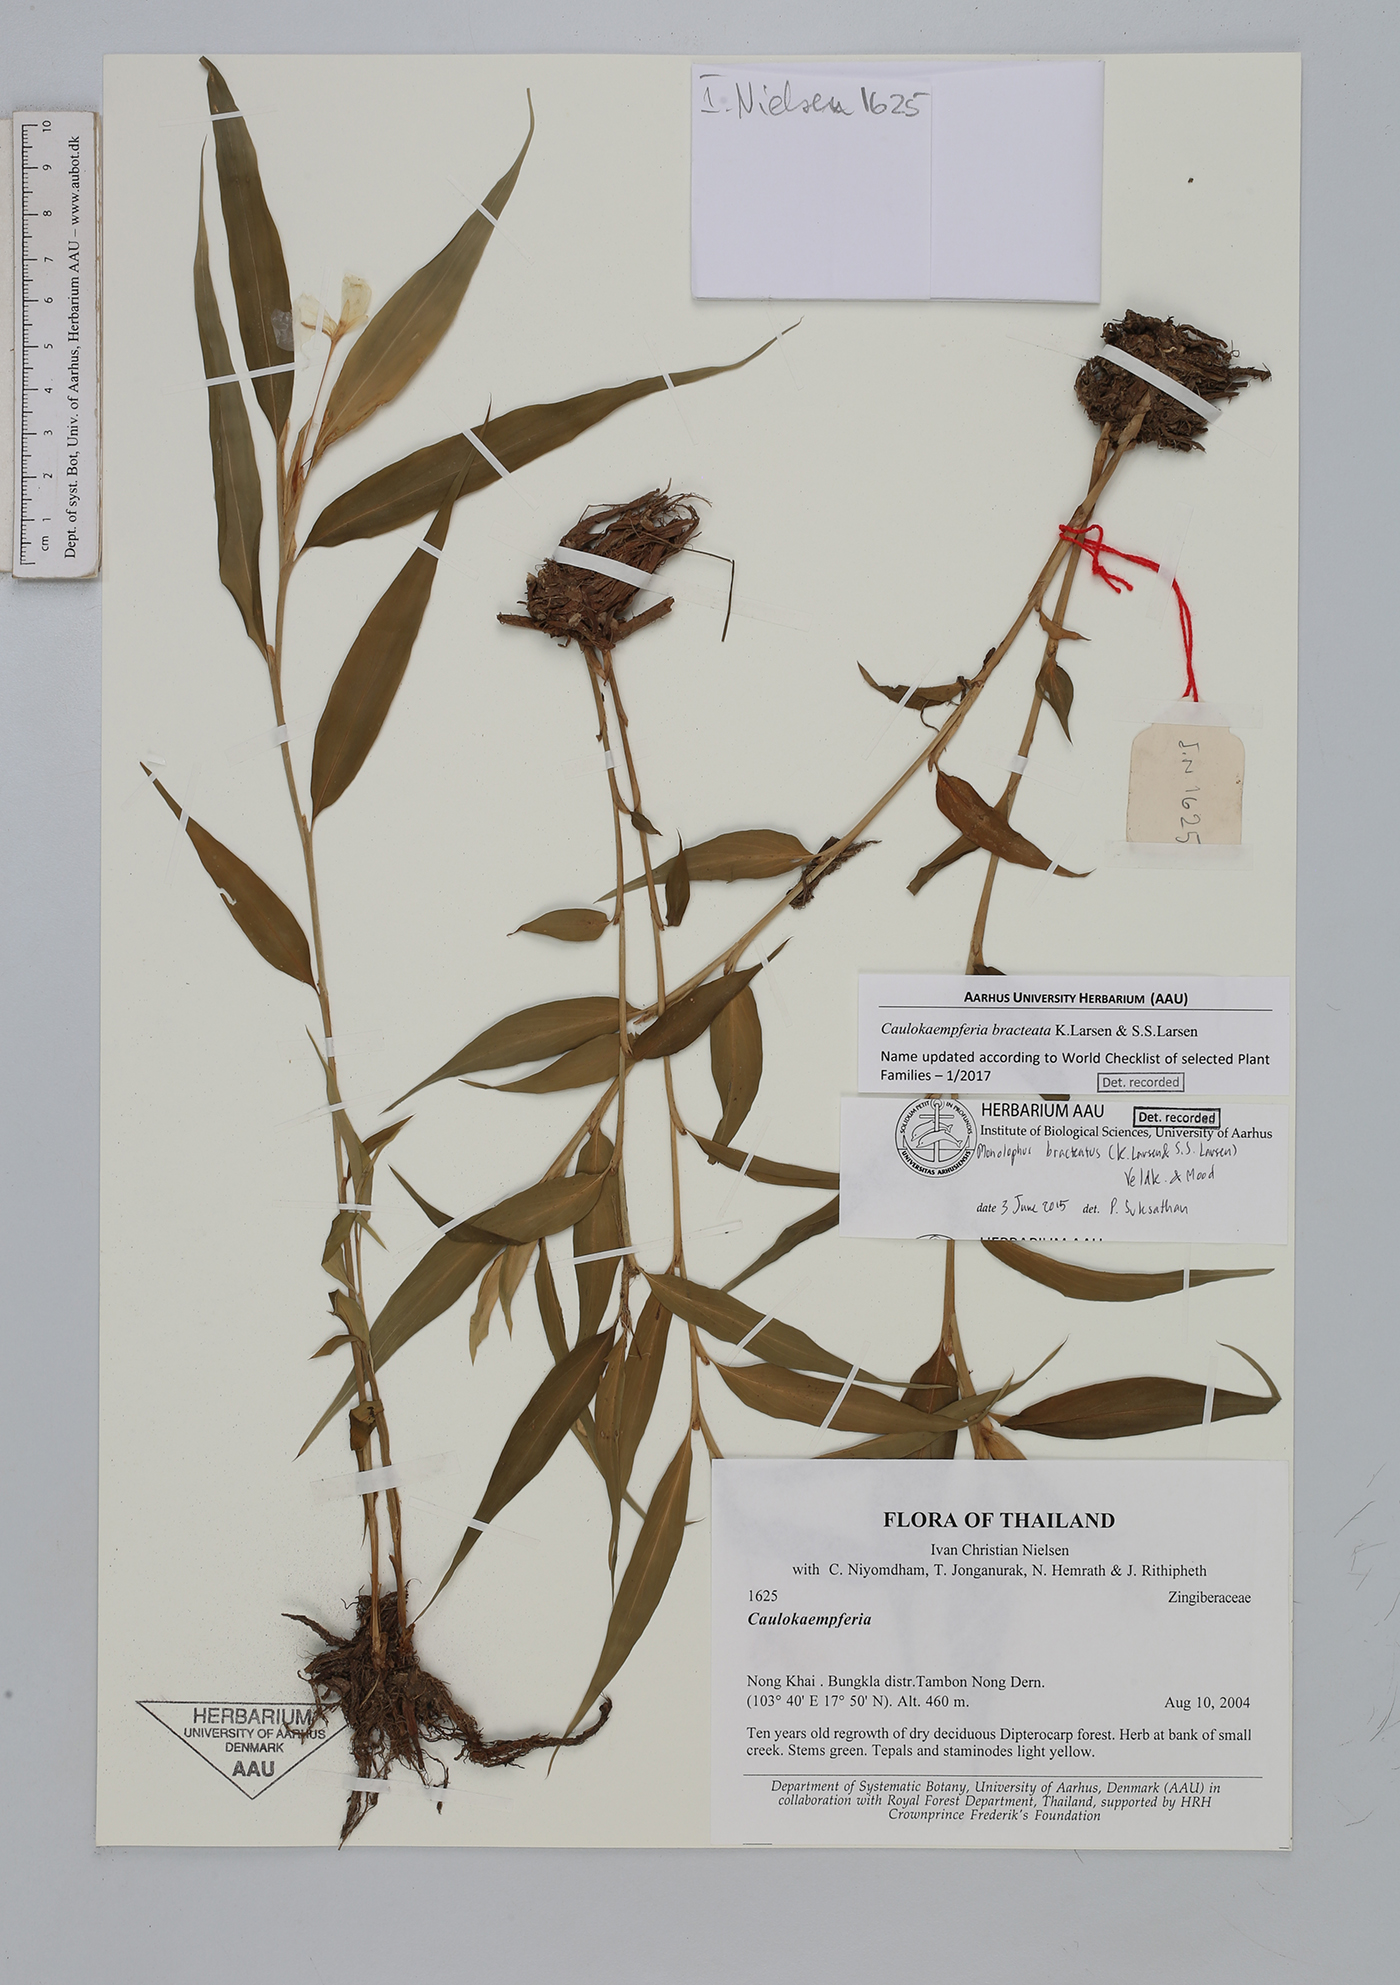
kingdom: Plantae
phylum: Tracheophyta
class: Liliopsida
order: Zingiberales
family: Zingiberaceae
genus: Caulokaempferia
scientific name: Caulokaempferia bracteata
